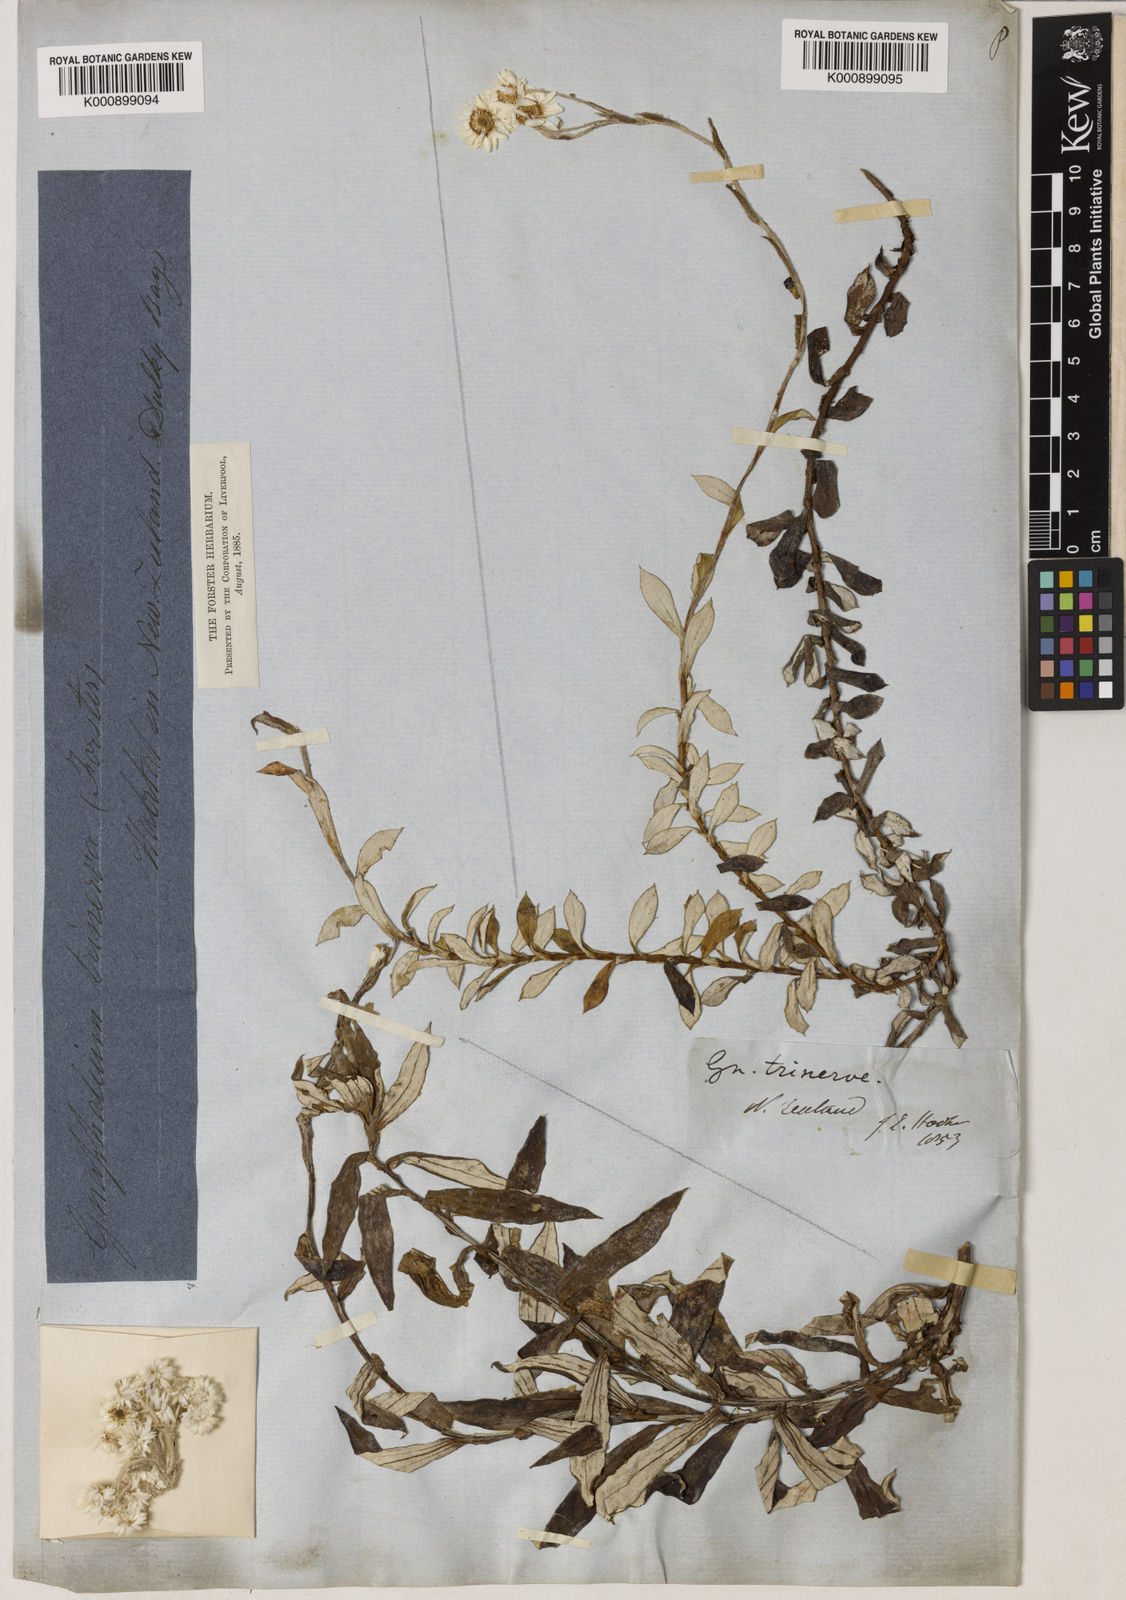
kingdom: Plantae
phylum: Tracheophyta
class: Magnoliopsida
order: Asterales
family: Asteraceae
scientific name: Asteraceae
